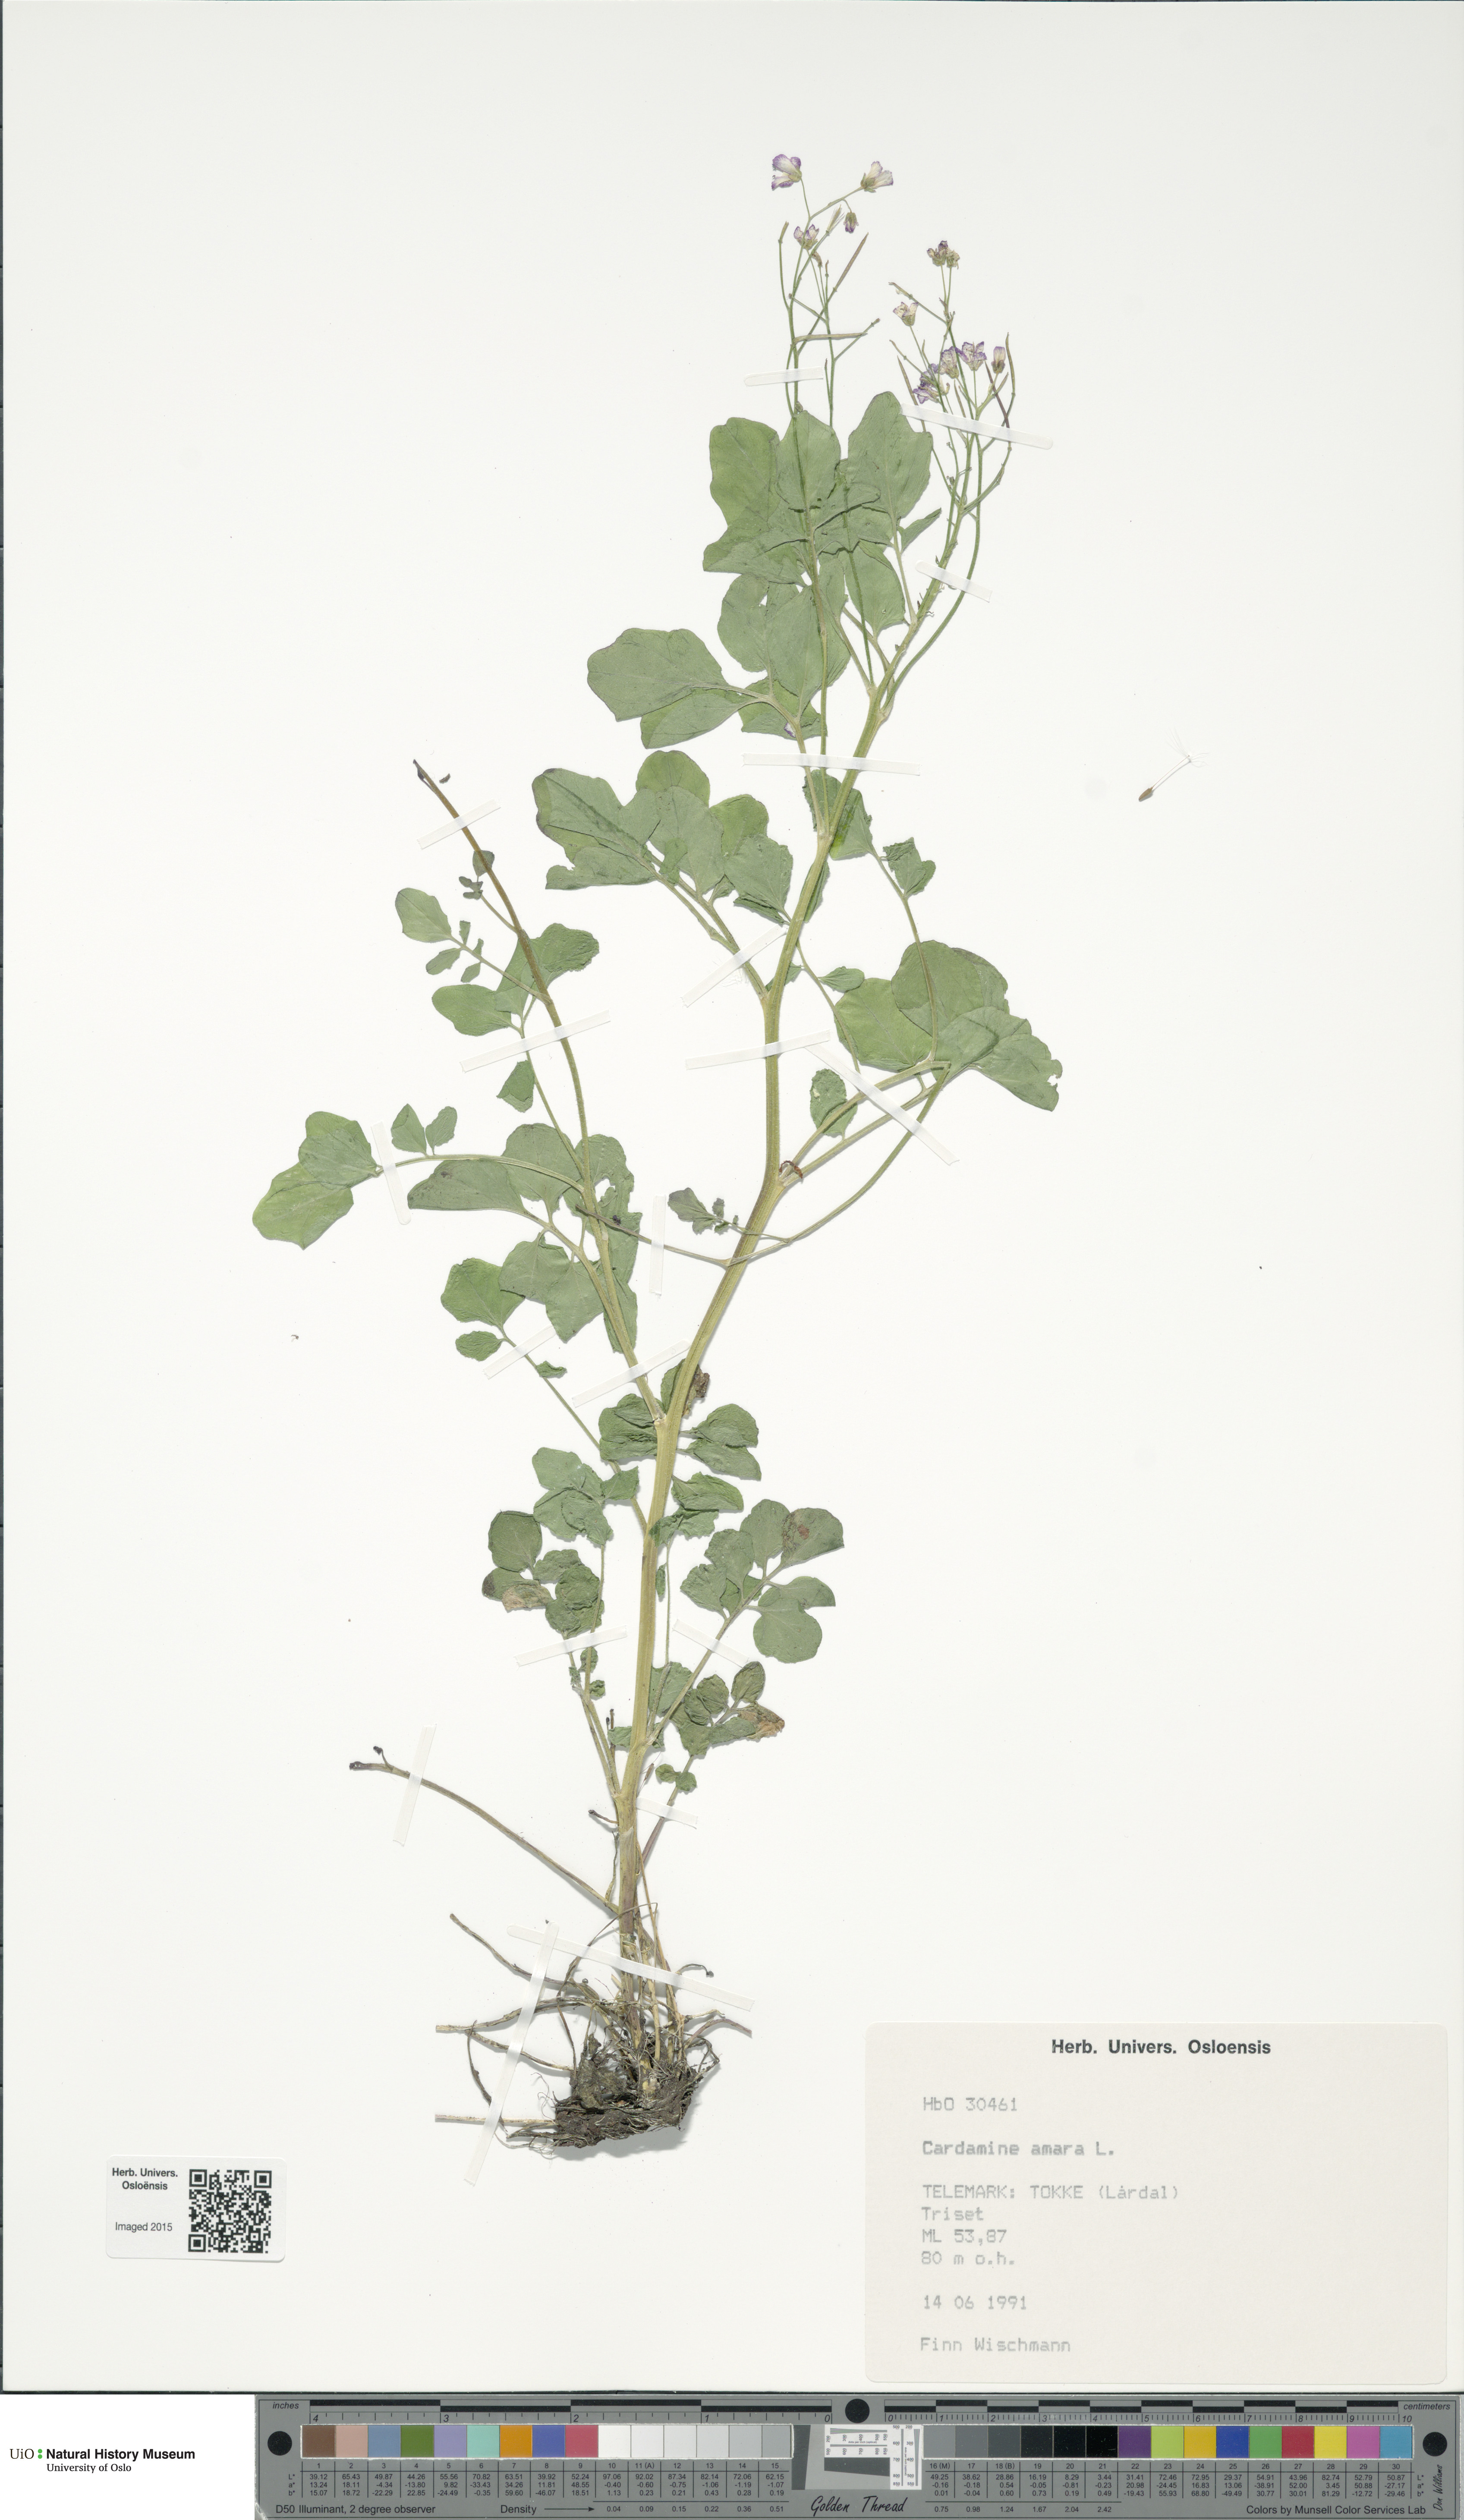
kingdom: Plantae
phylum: Tracheophyta
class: Magnoliopsida
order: Brassicales
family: Brassicaceae
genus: Cardamine
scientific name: Cardamine amara
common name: Large bitter-cress
